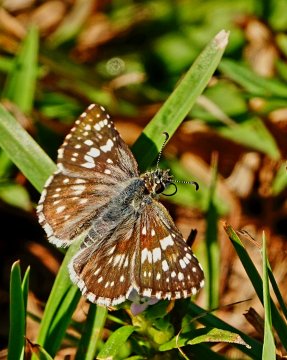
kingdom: Animalia
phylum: Arthropoda
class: Insecta
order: Lepidoptera
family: Hesperiidae
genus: Pyrgus
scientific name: Pyrgus communis
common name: Common Checkered-Skipper
